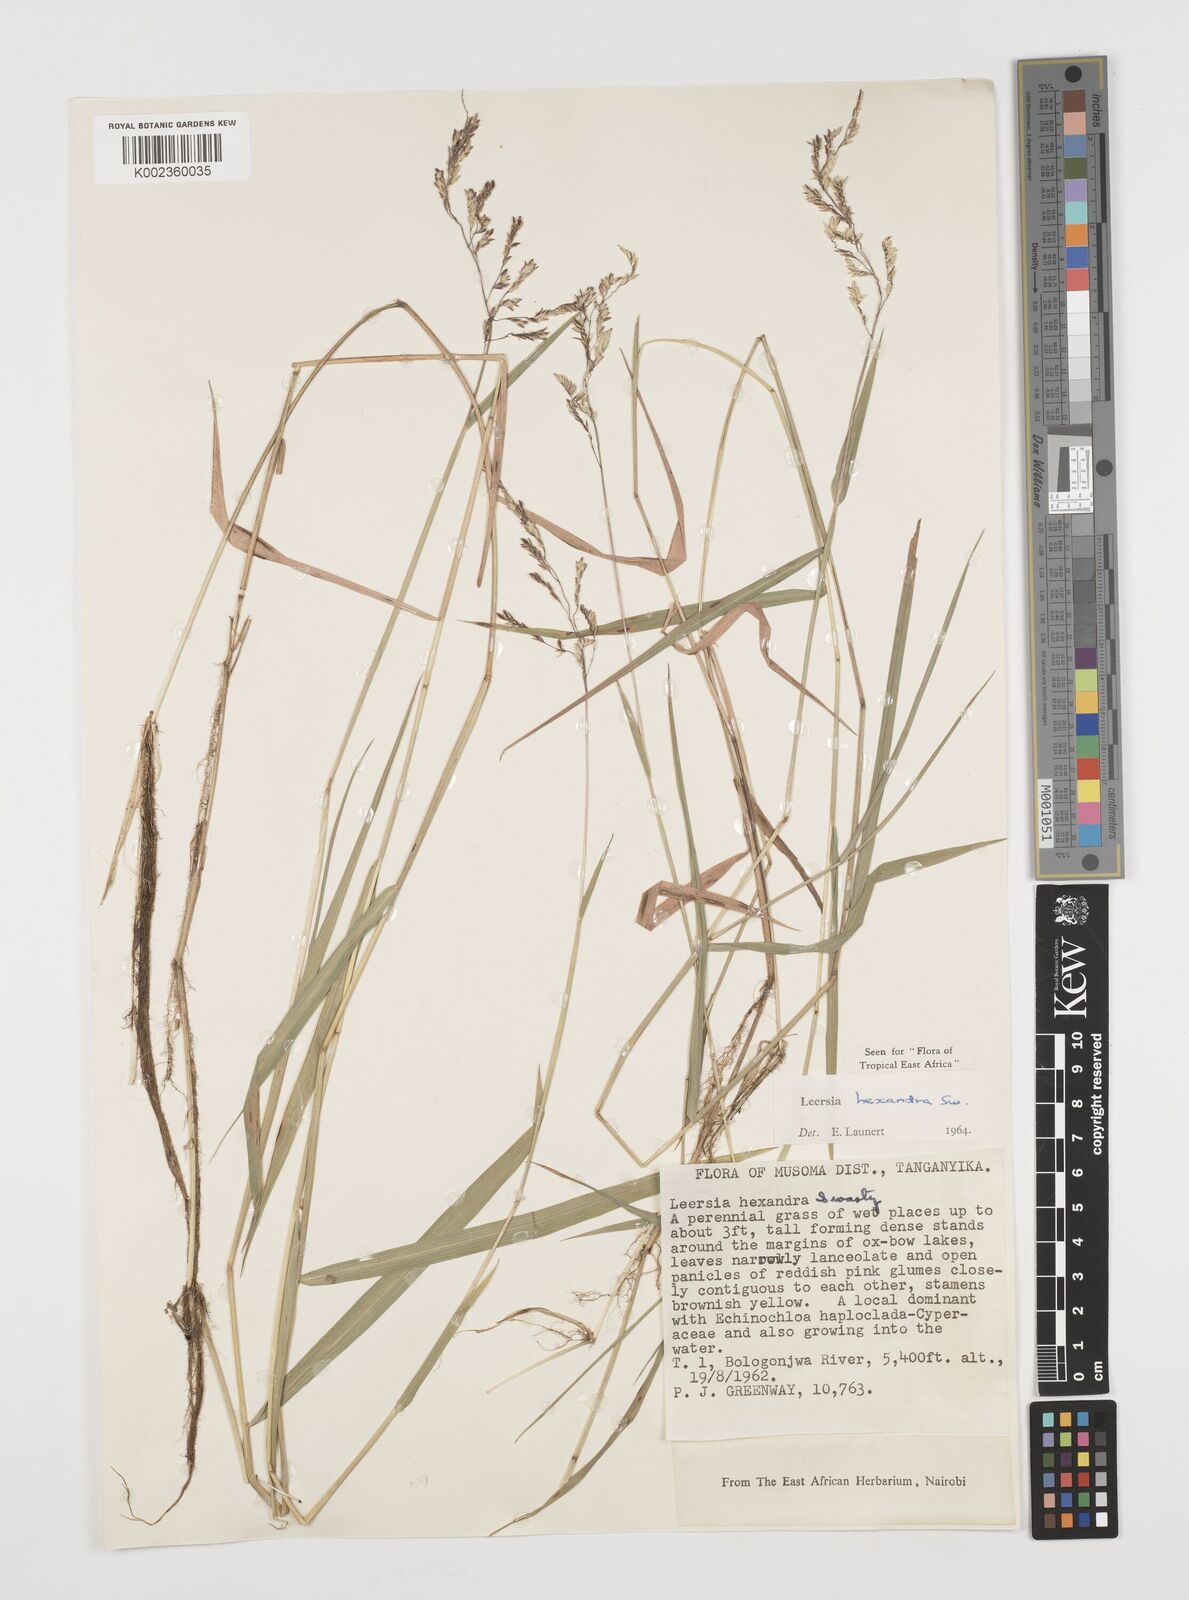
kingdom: Plantae
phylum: Tracheophyta
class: Liliopsida
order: Poales
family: Poaceae
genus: Leersia
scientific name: Leersia hexandra
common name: Southern cut grass
